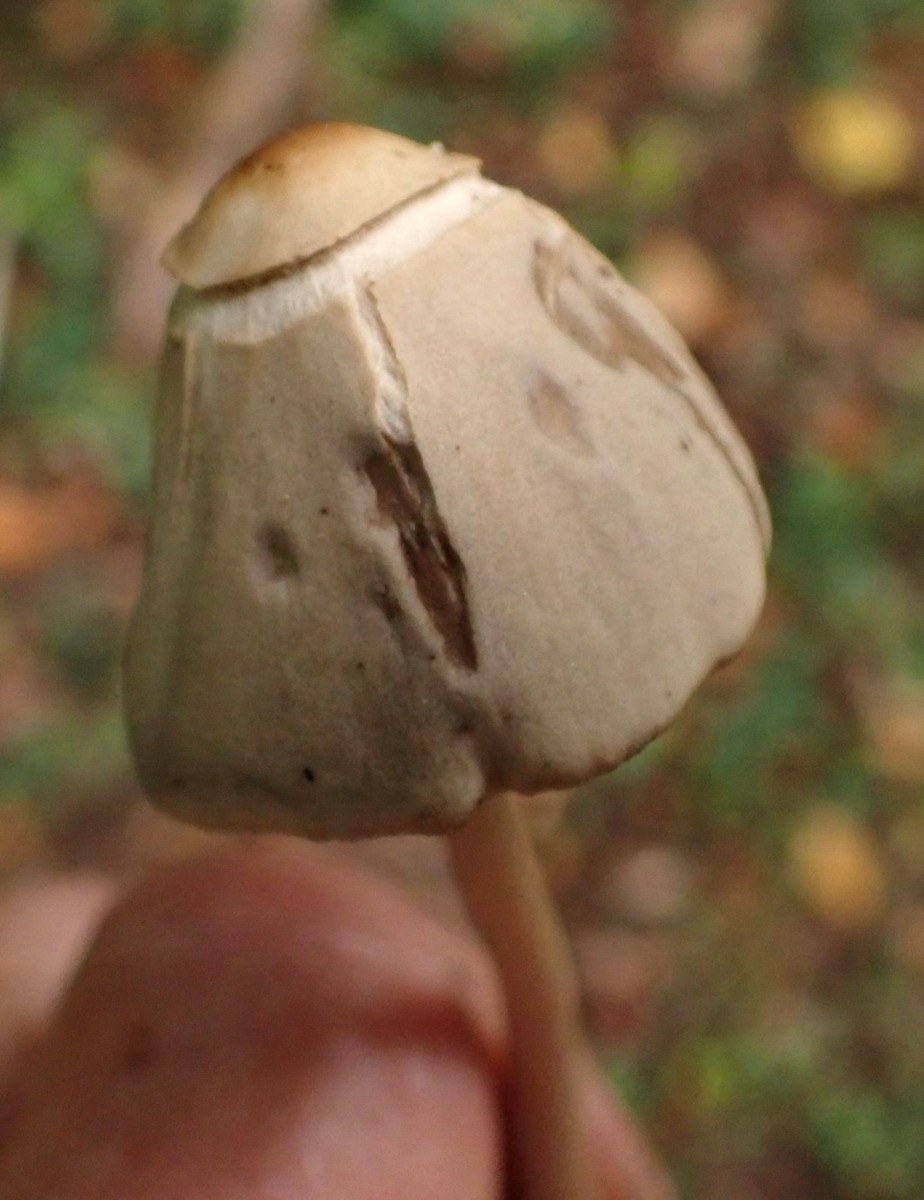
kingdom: Fungi
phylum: Basidiomycota
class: Agaricomycetes
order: Agaricales
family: Psathyrellaceae
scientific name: Psathyrellaceae
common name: mørkhatfamilien
